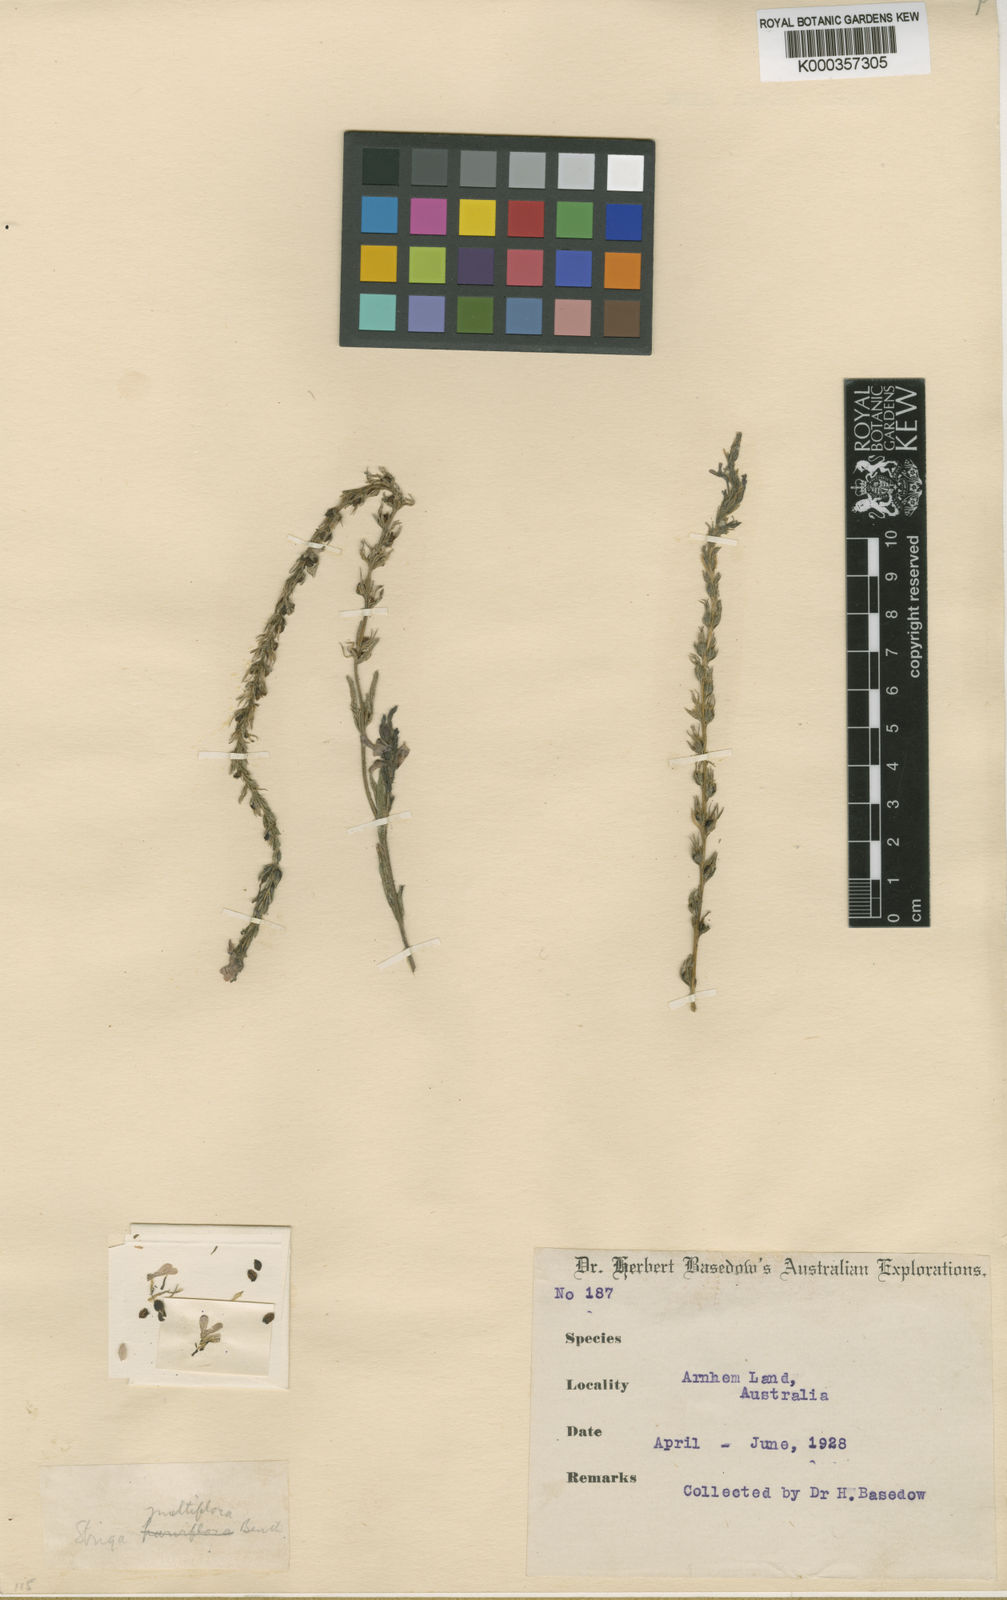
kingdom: Plantae
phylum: Tracheophyta
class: Magnoliopsida
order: Lamiales
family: Orobanchaceae
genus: Striga
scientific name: Striga multiflora
